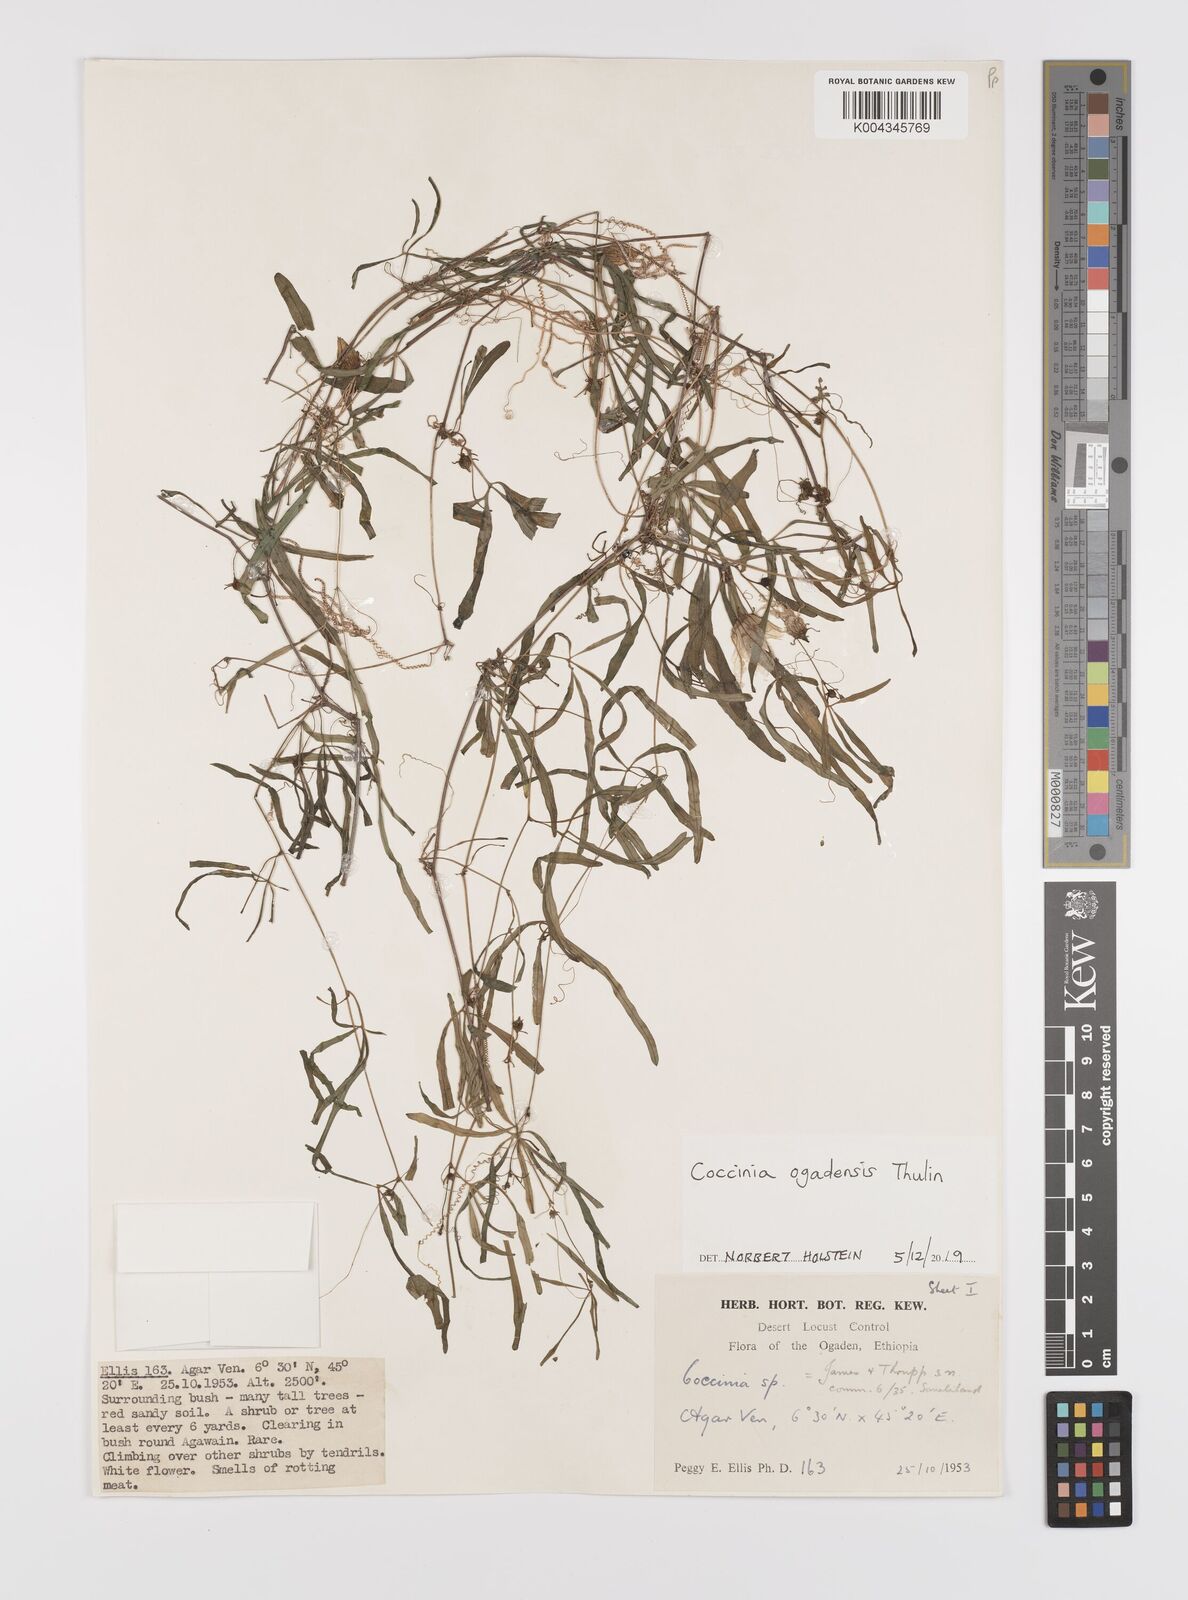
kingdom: Plantae
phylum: Tracheophyta
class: Magnoliopsida
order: Cucurbitales
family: Cucurbitaceae
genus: Coccinia
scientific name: Coccinia ogadensis
